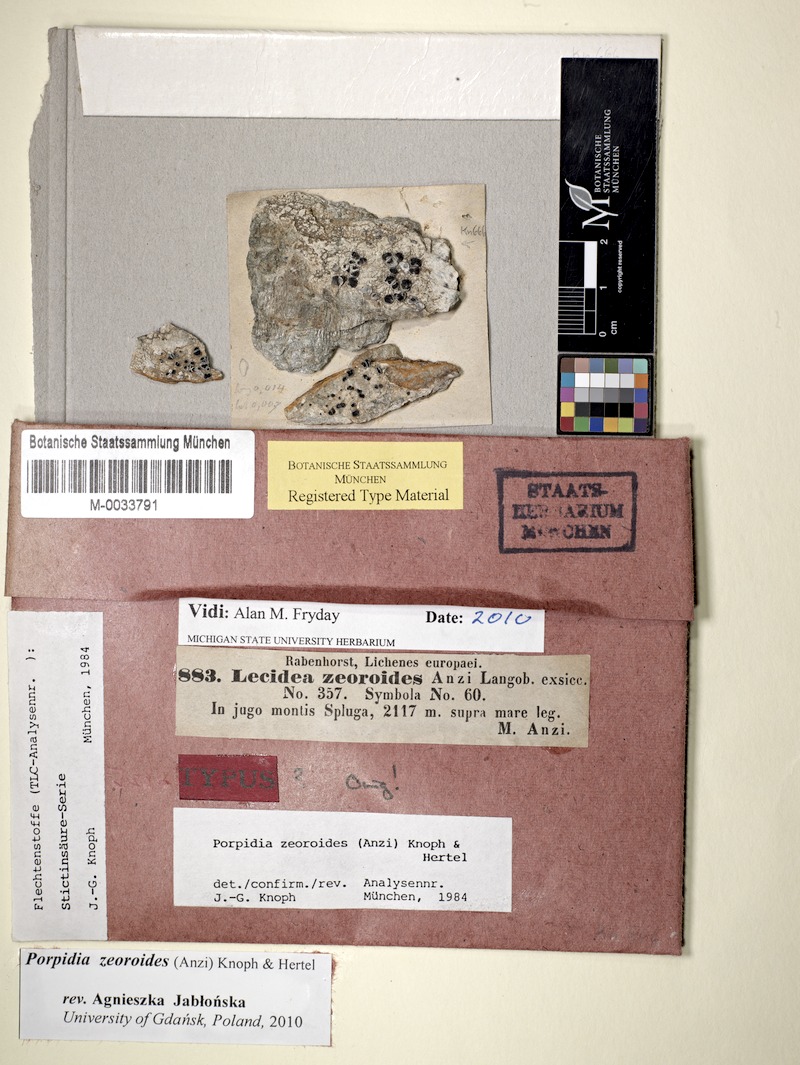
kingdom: Fungi
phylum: Ascomycota
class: Lecanoromycetes
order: Lecideales
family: Lecideaceae
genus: Porpidia
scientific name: Porpidia zeoroides
